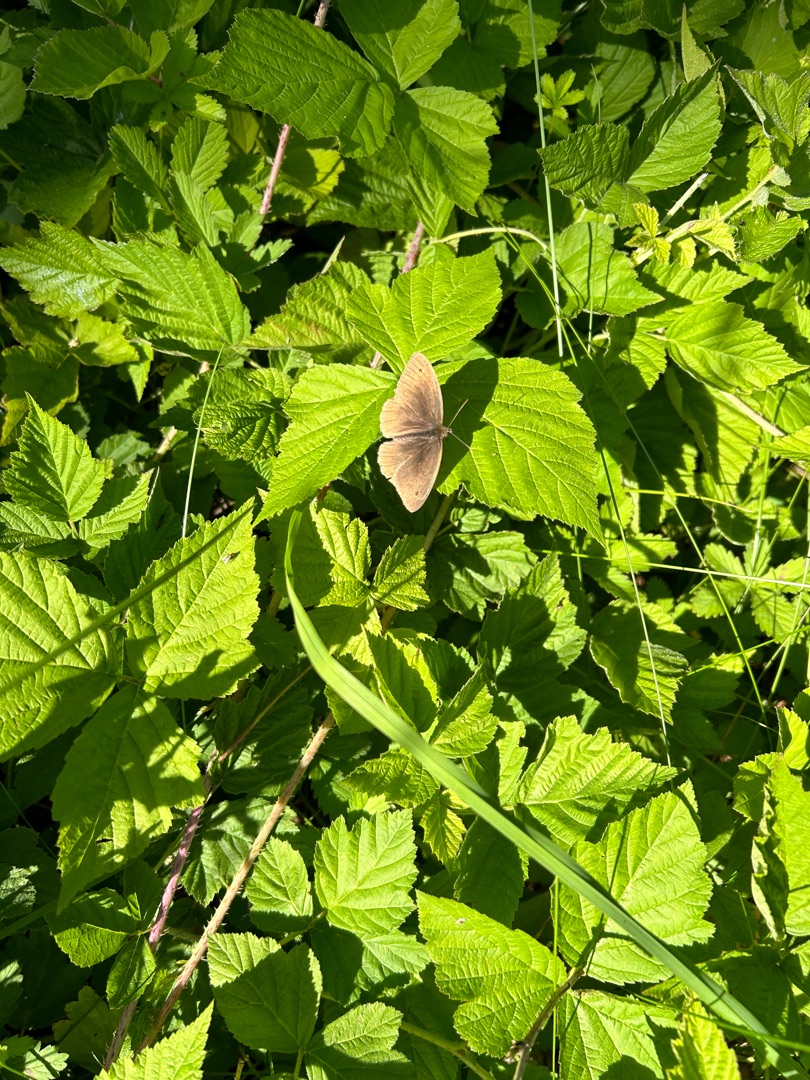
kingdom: Animalia
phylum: Arthropoda
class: Insecta
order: Lepidoptera
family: Nymphalidae
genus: Maniola
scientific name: Maniola jurtina
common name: Græsrandøje
